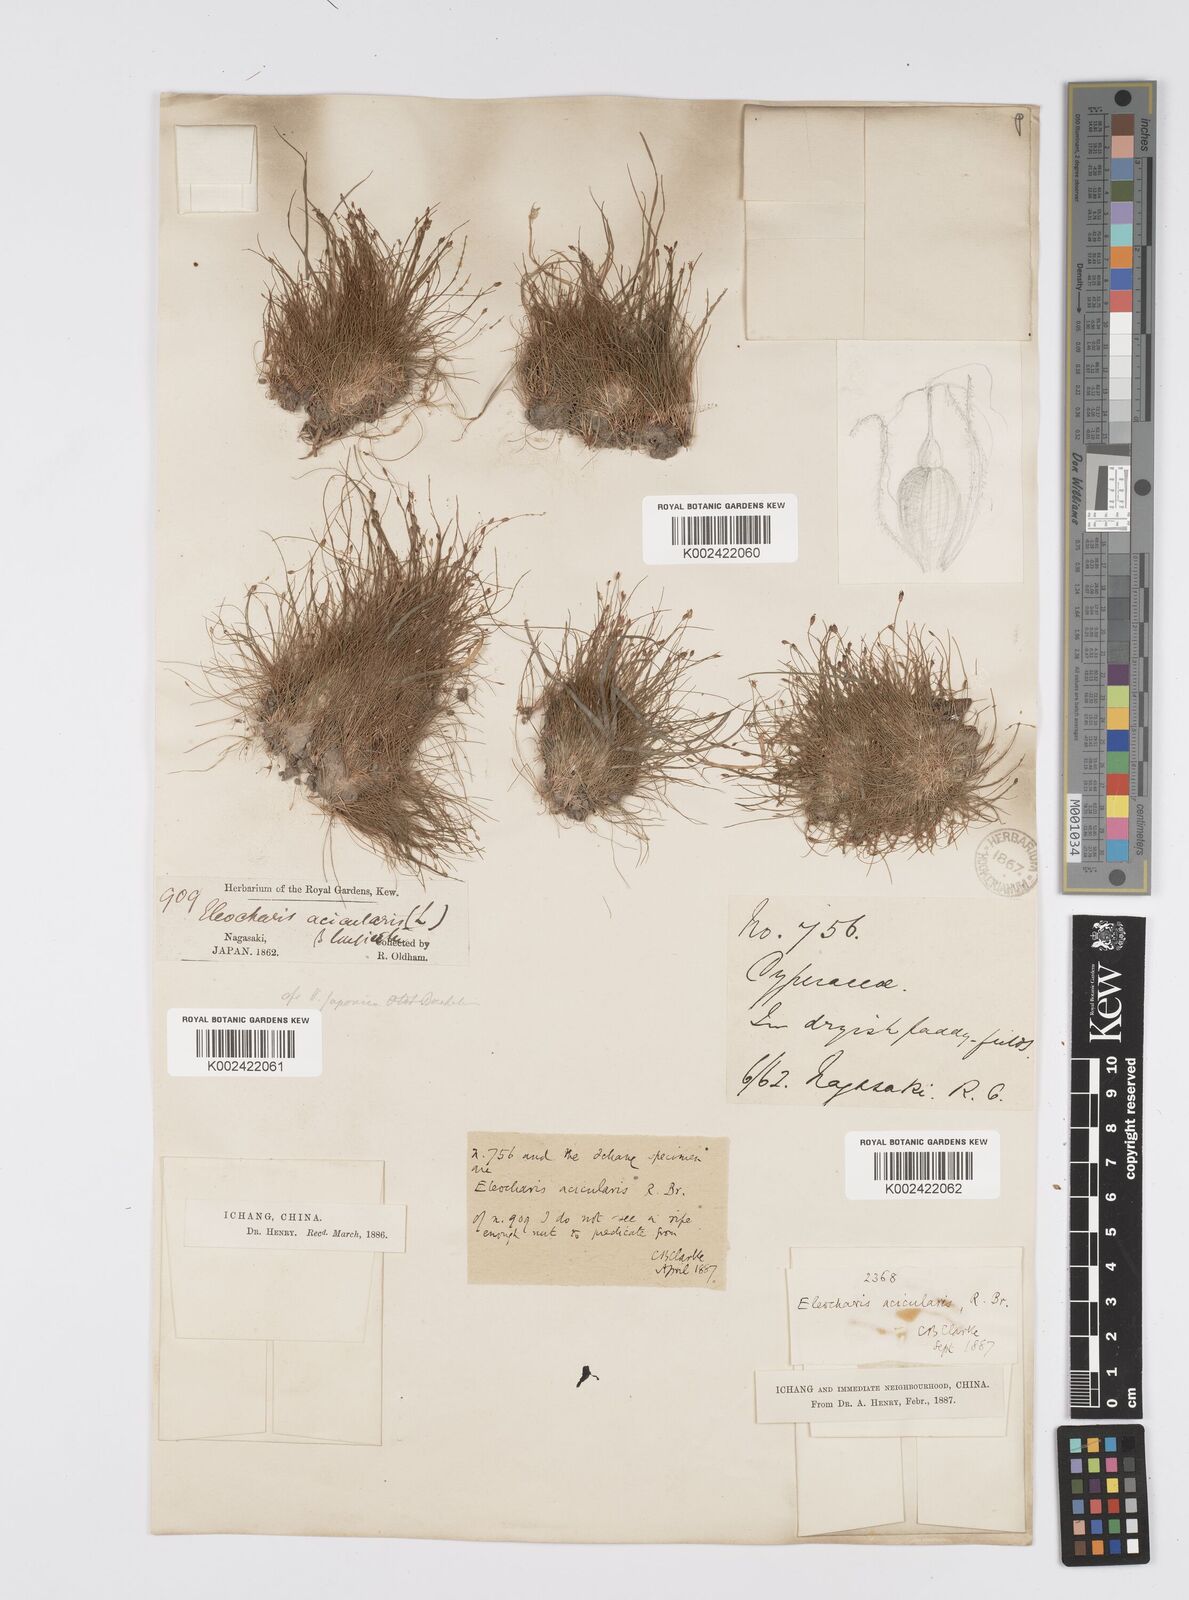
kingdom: Plantae
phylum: Tracheophyta
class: Liliopsida
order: Poales
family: Cyperaceae
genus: Eleocharis
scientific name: Eleocharis acicularis
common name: Needle spike-rush
